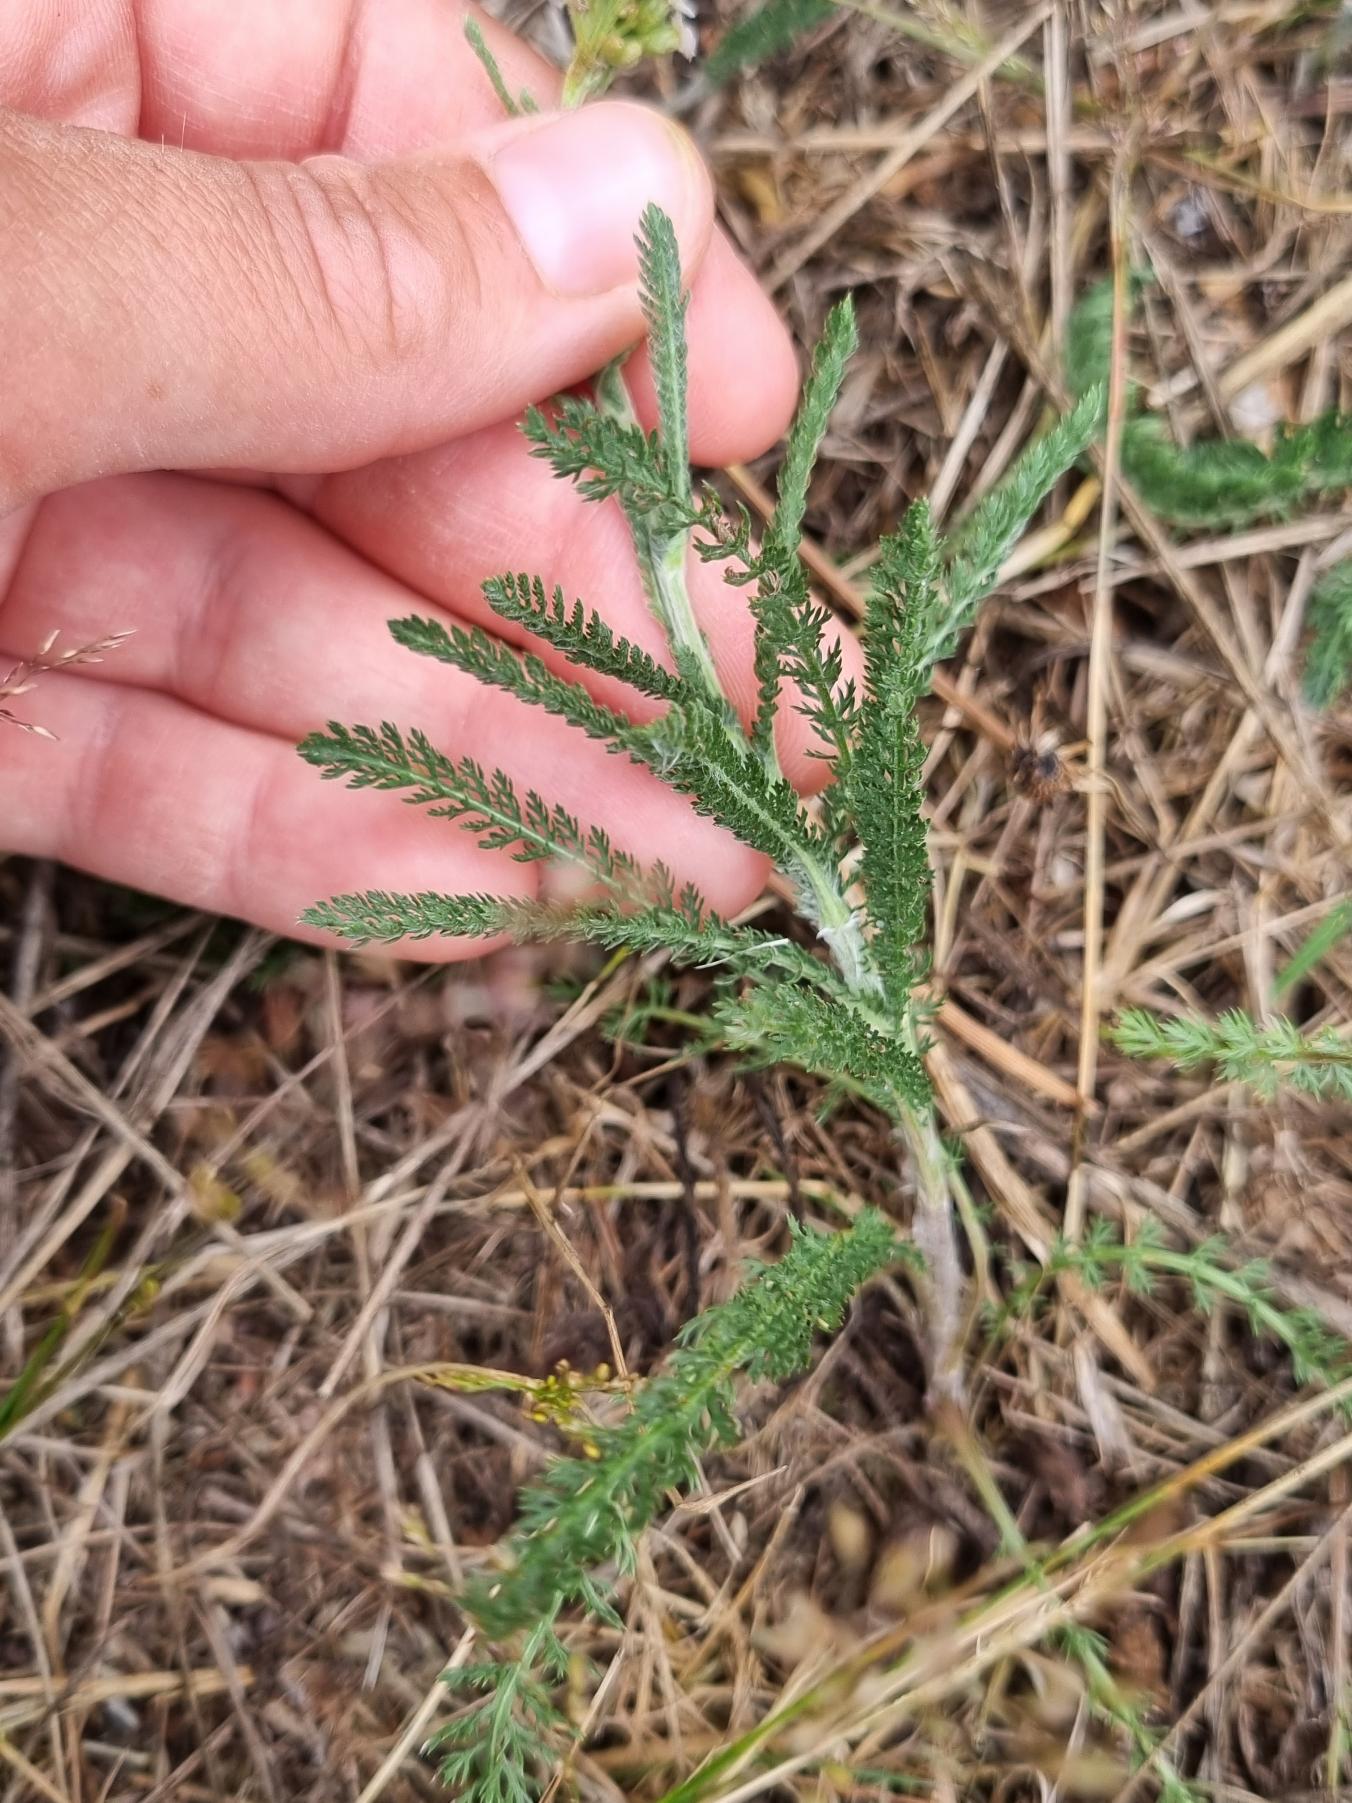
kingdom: Plantae
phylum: Tracheophyta
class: Magnoliopsida
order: Asterales
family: Asteraceae
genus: Achillea
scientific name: Achillea millefolium
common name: Almindelig røllike
